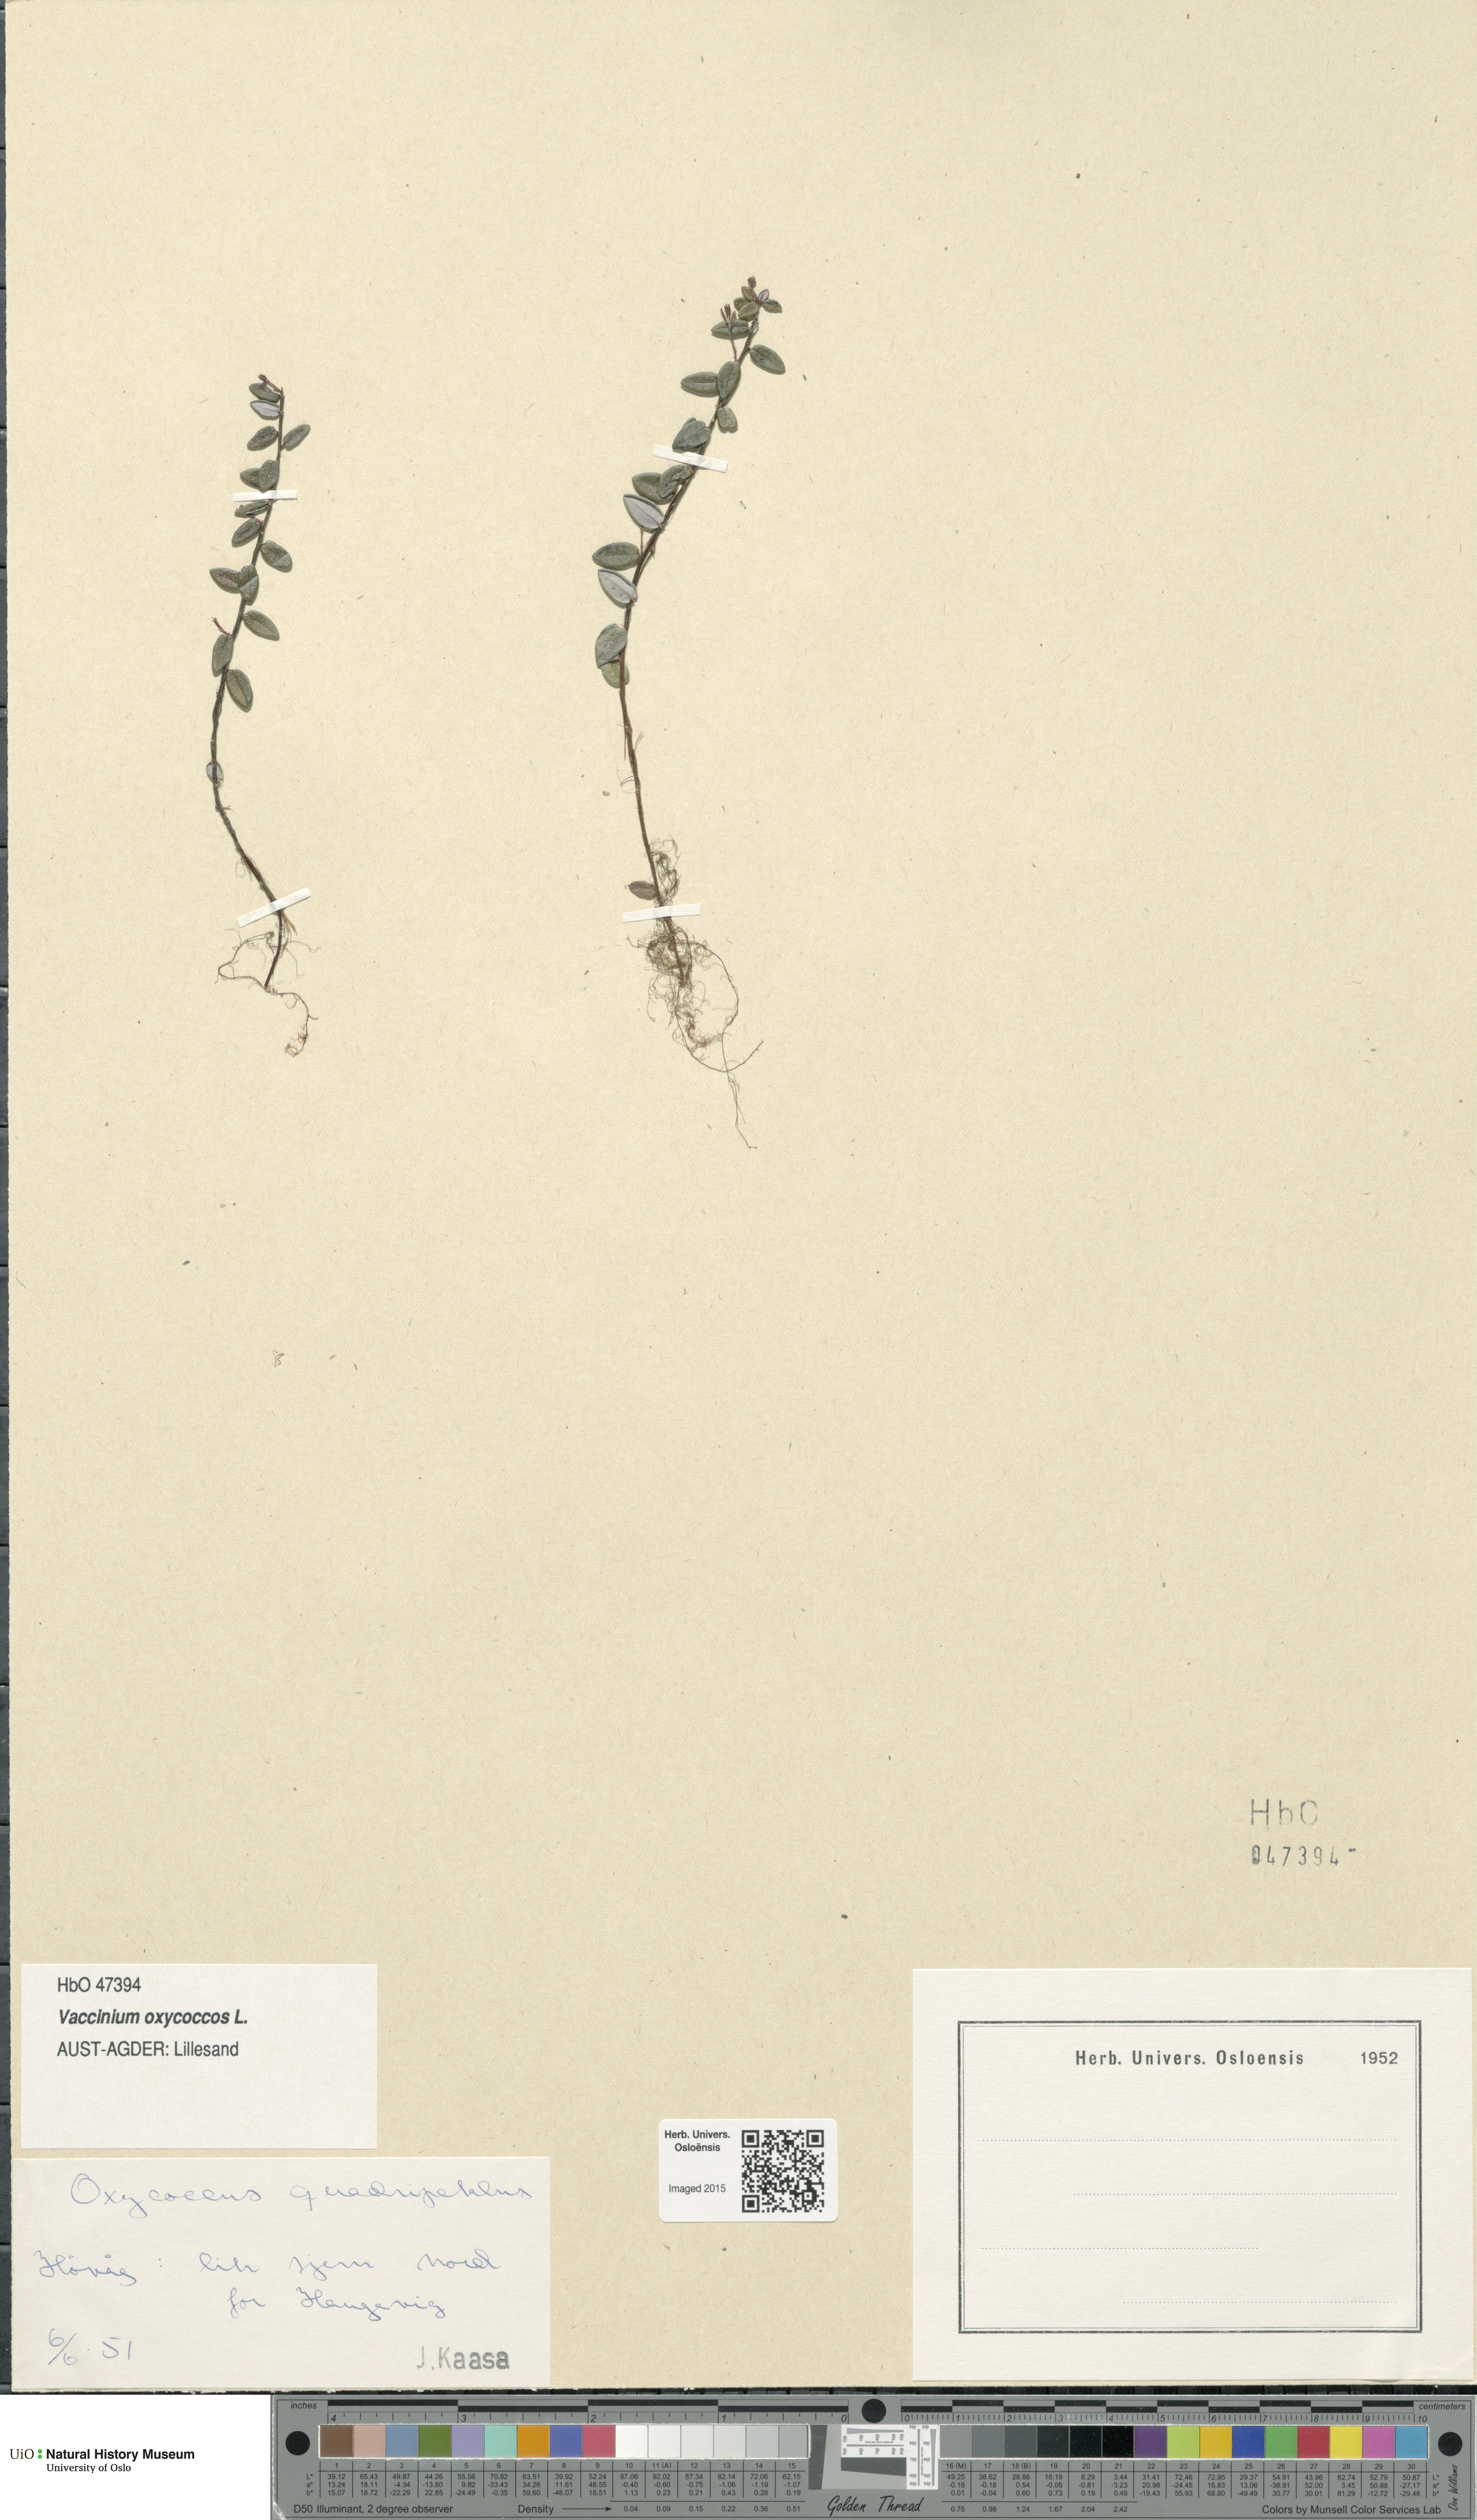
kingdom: Plantae
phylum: Tracheophyta
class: Magnoliopsida
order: Ericales
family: Ericaceae
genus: Vaccinium
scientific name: Vaccinium oxycoccos
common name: Cranberry
